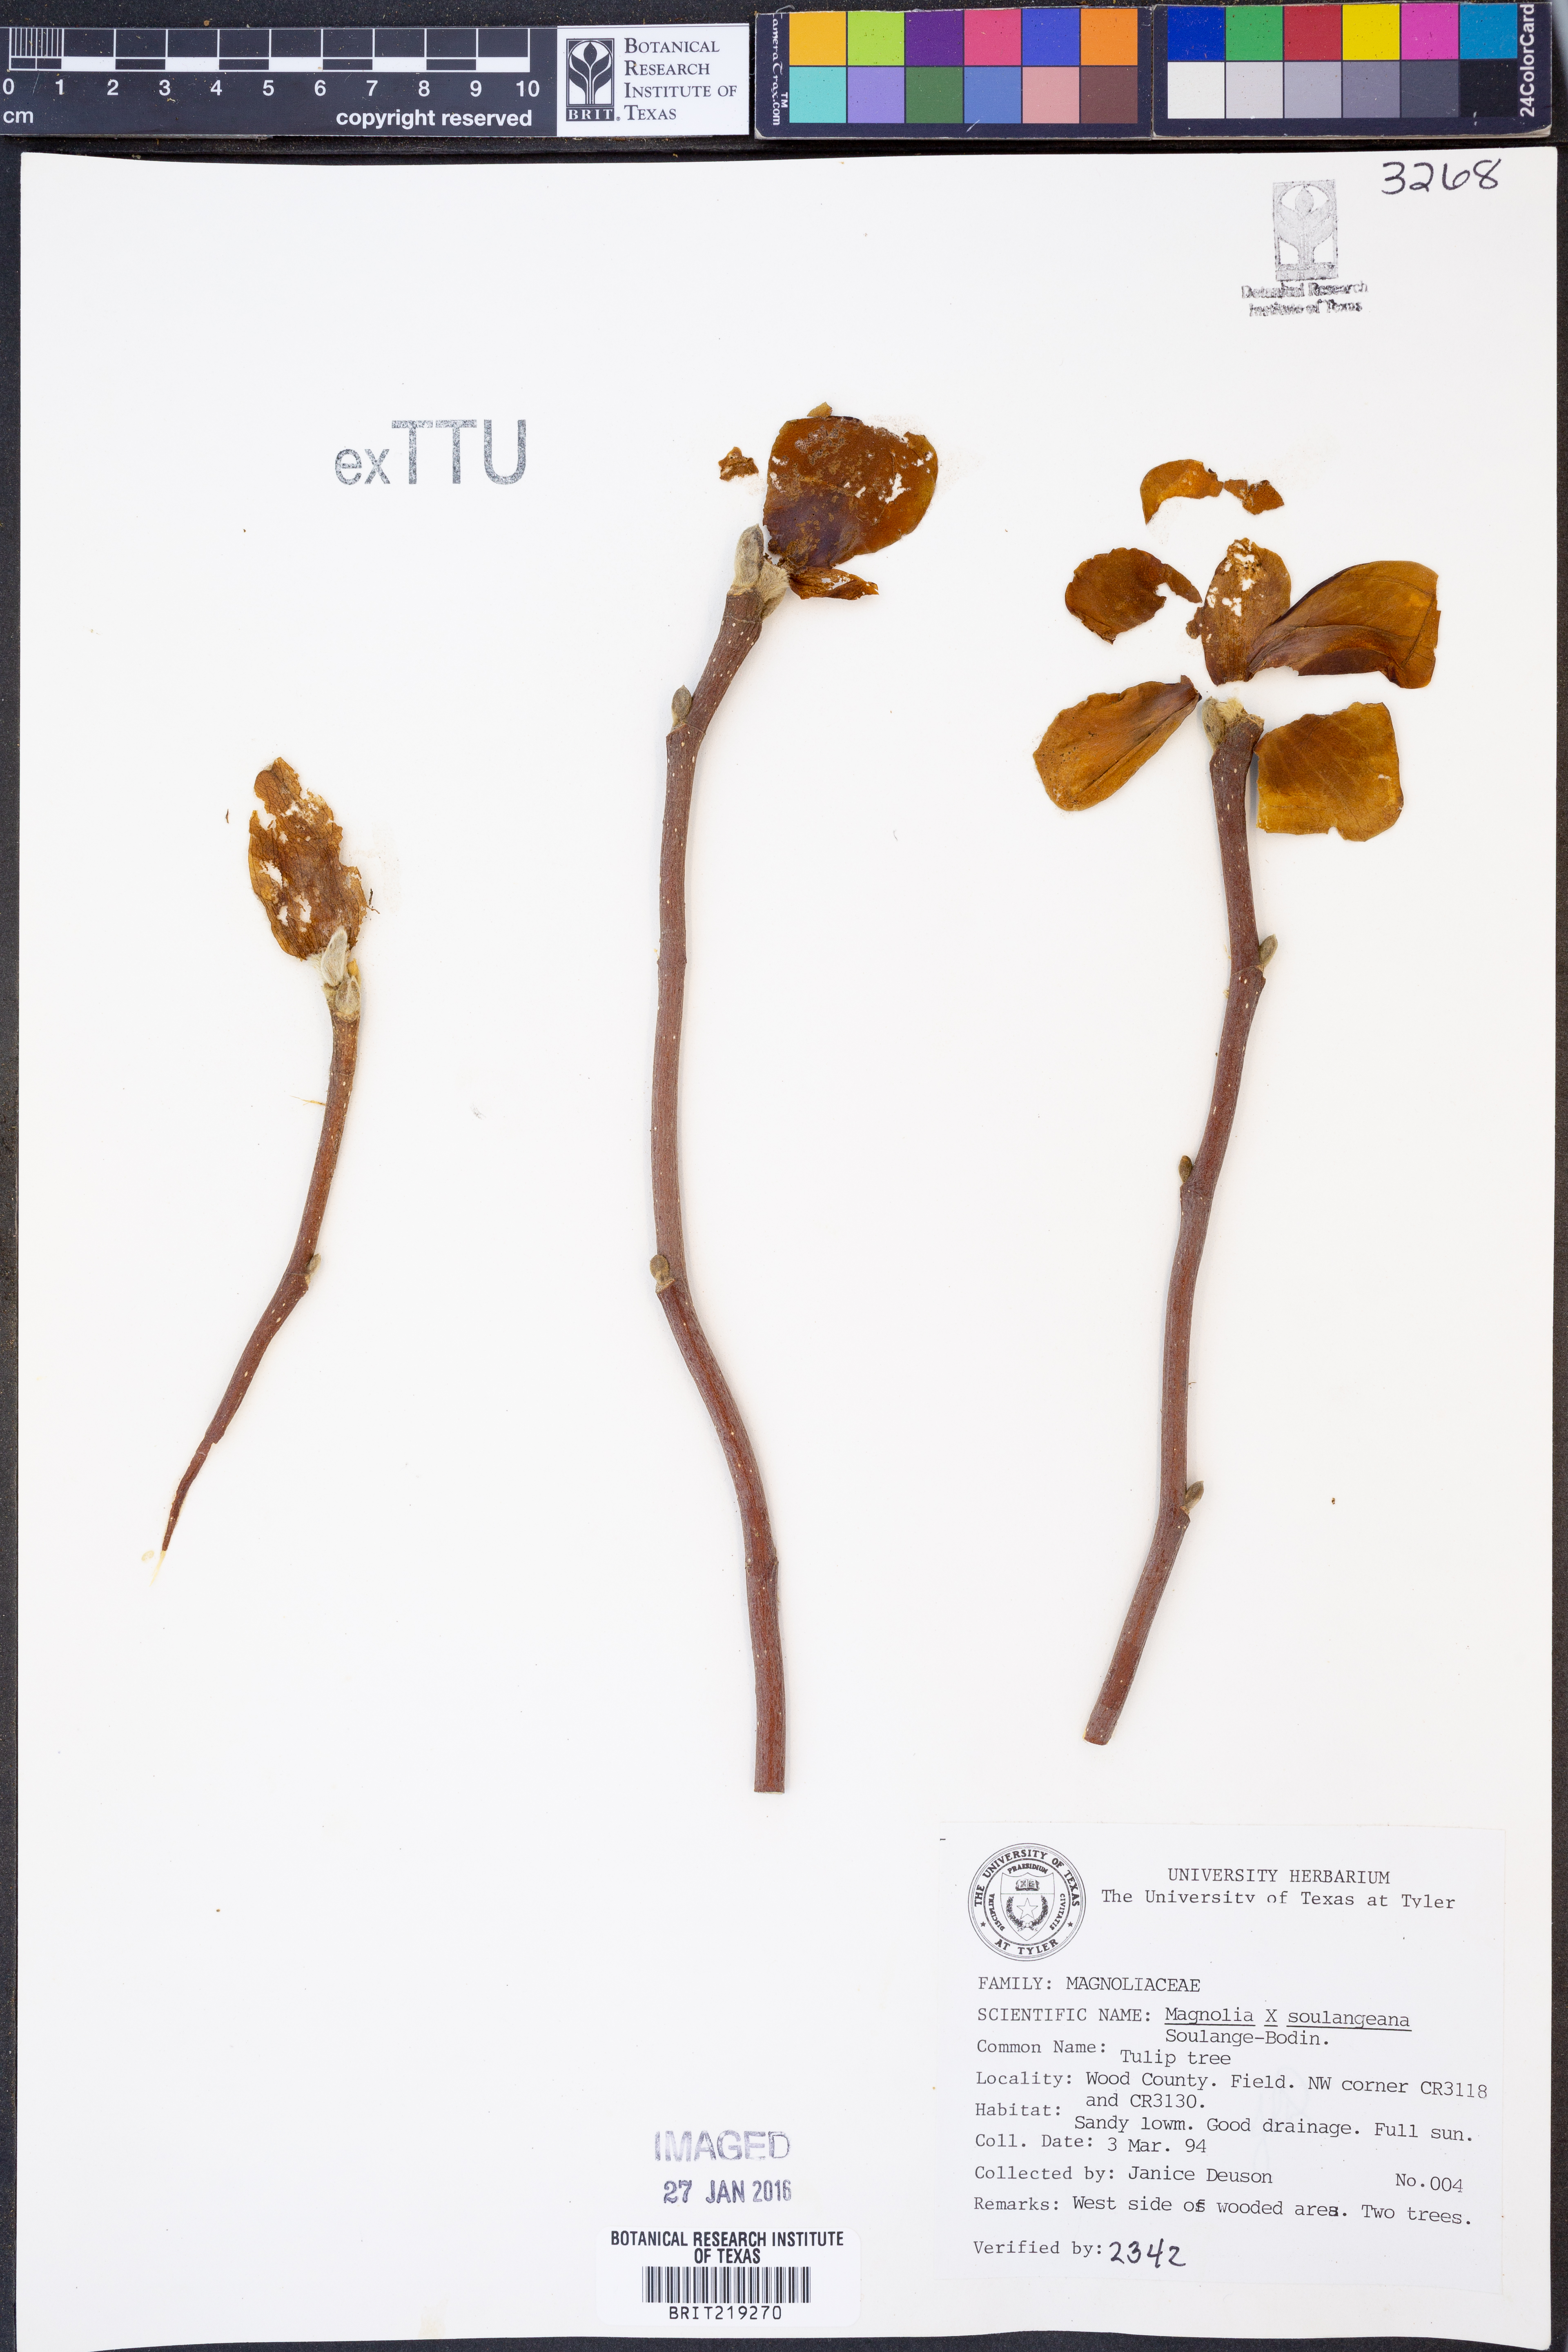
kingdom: Plantae
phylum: Tracheophyta
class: Magnoliopsida
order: Magnoliales
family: Magnoliaceae
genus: Magnolia
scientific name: Magnolia soulangeana
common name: Chinese magnolia
